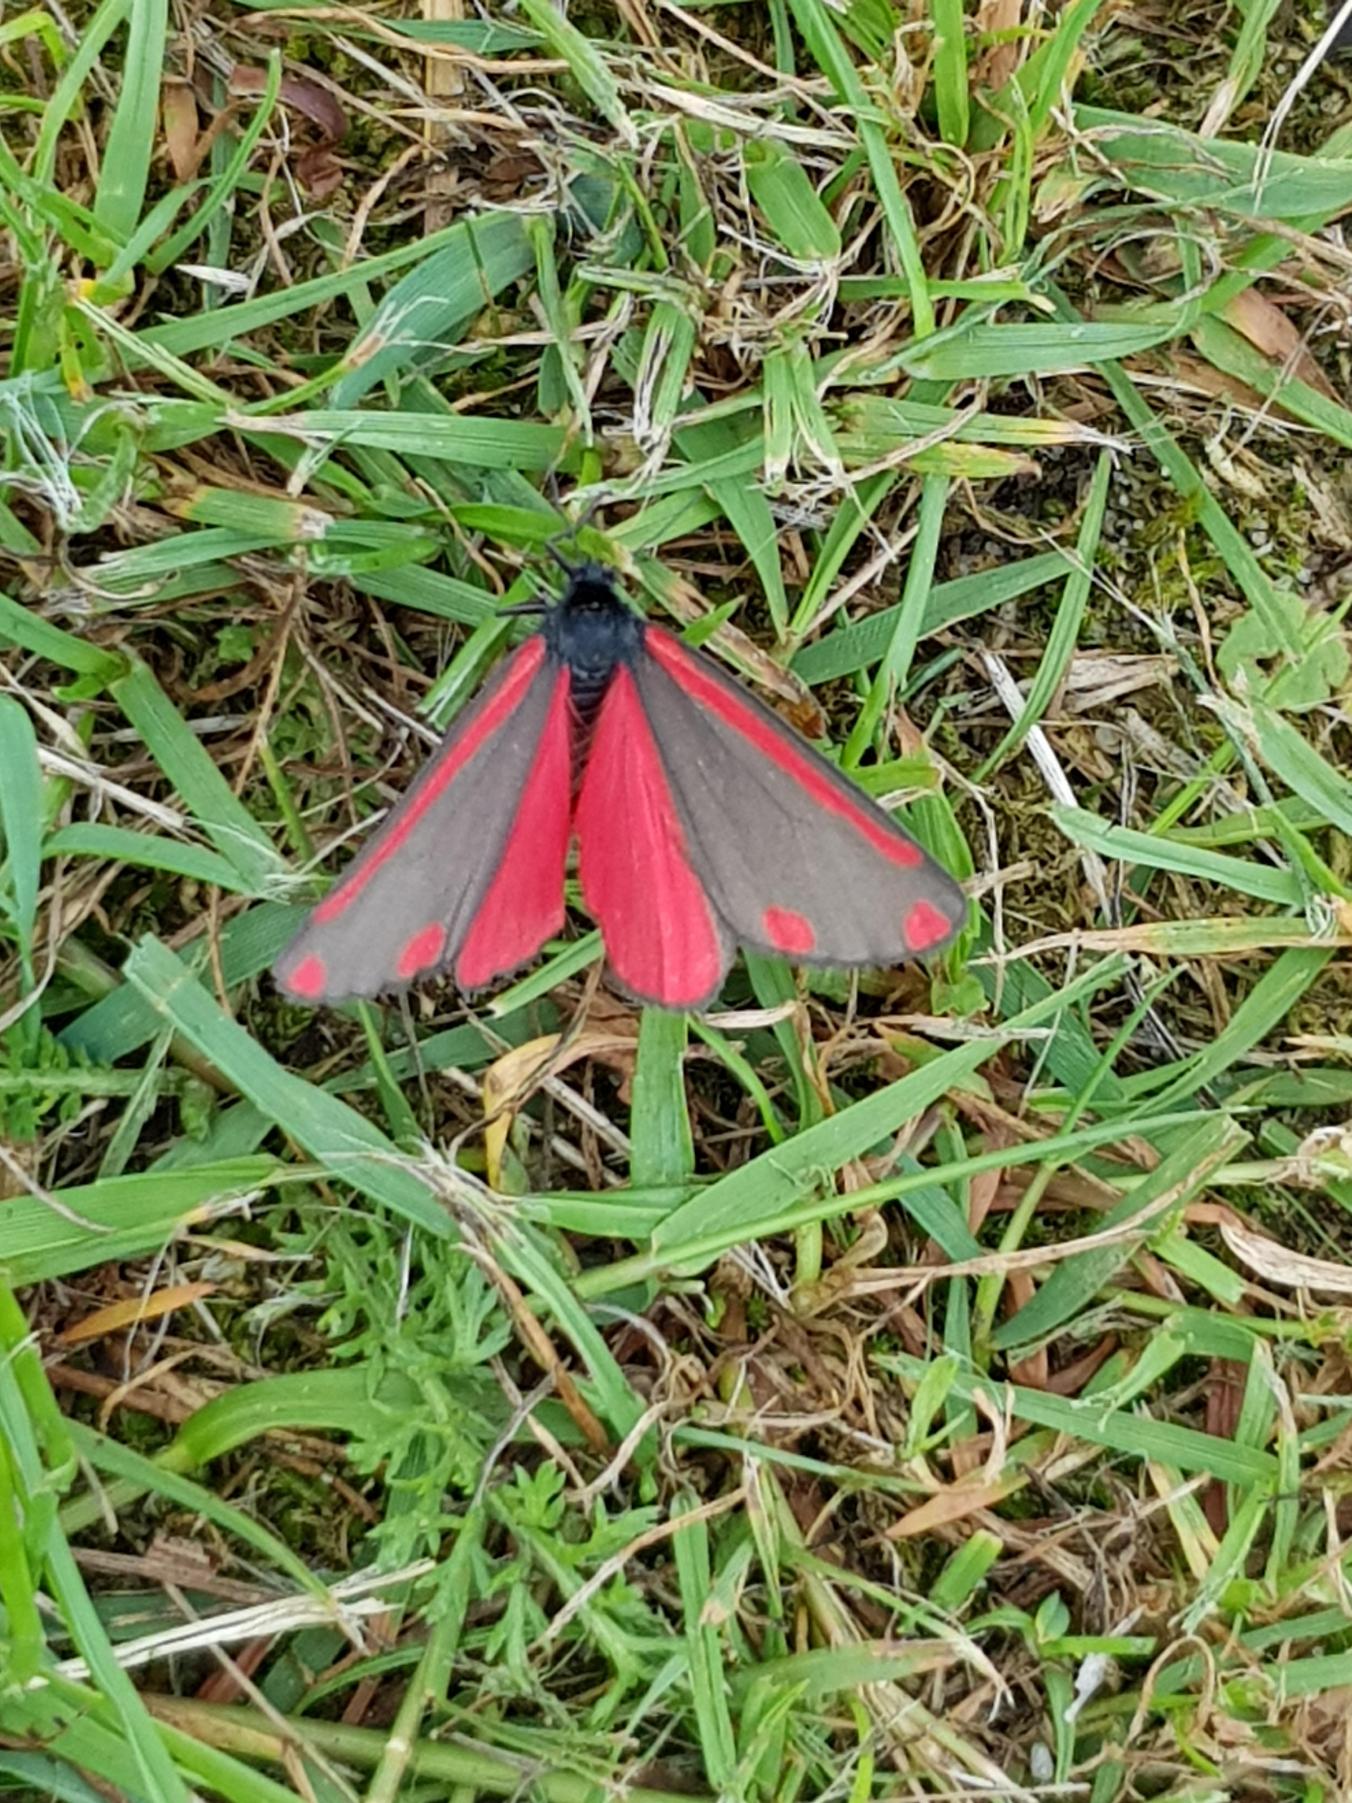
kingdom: Animalia
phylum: Arthropoda
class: Insecta
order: Lepidoptera
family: Erebidae
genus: Tyria
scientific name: Tyria jacobaeae
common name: Blodplet
